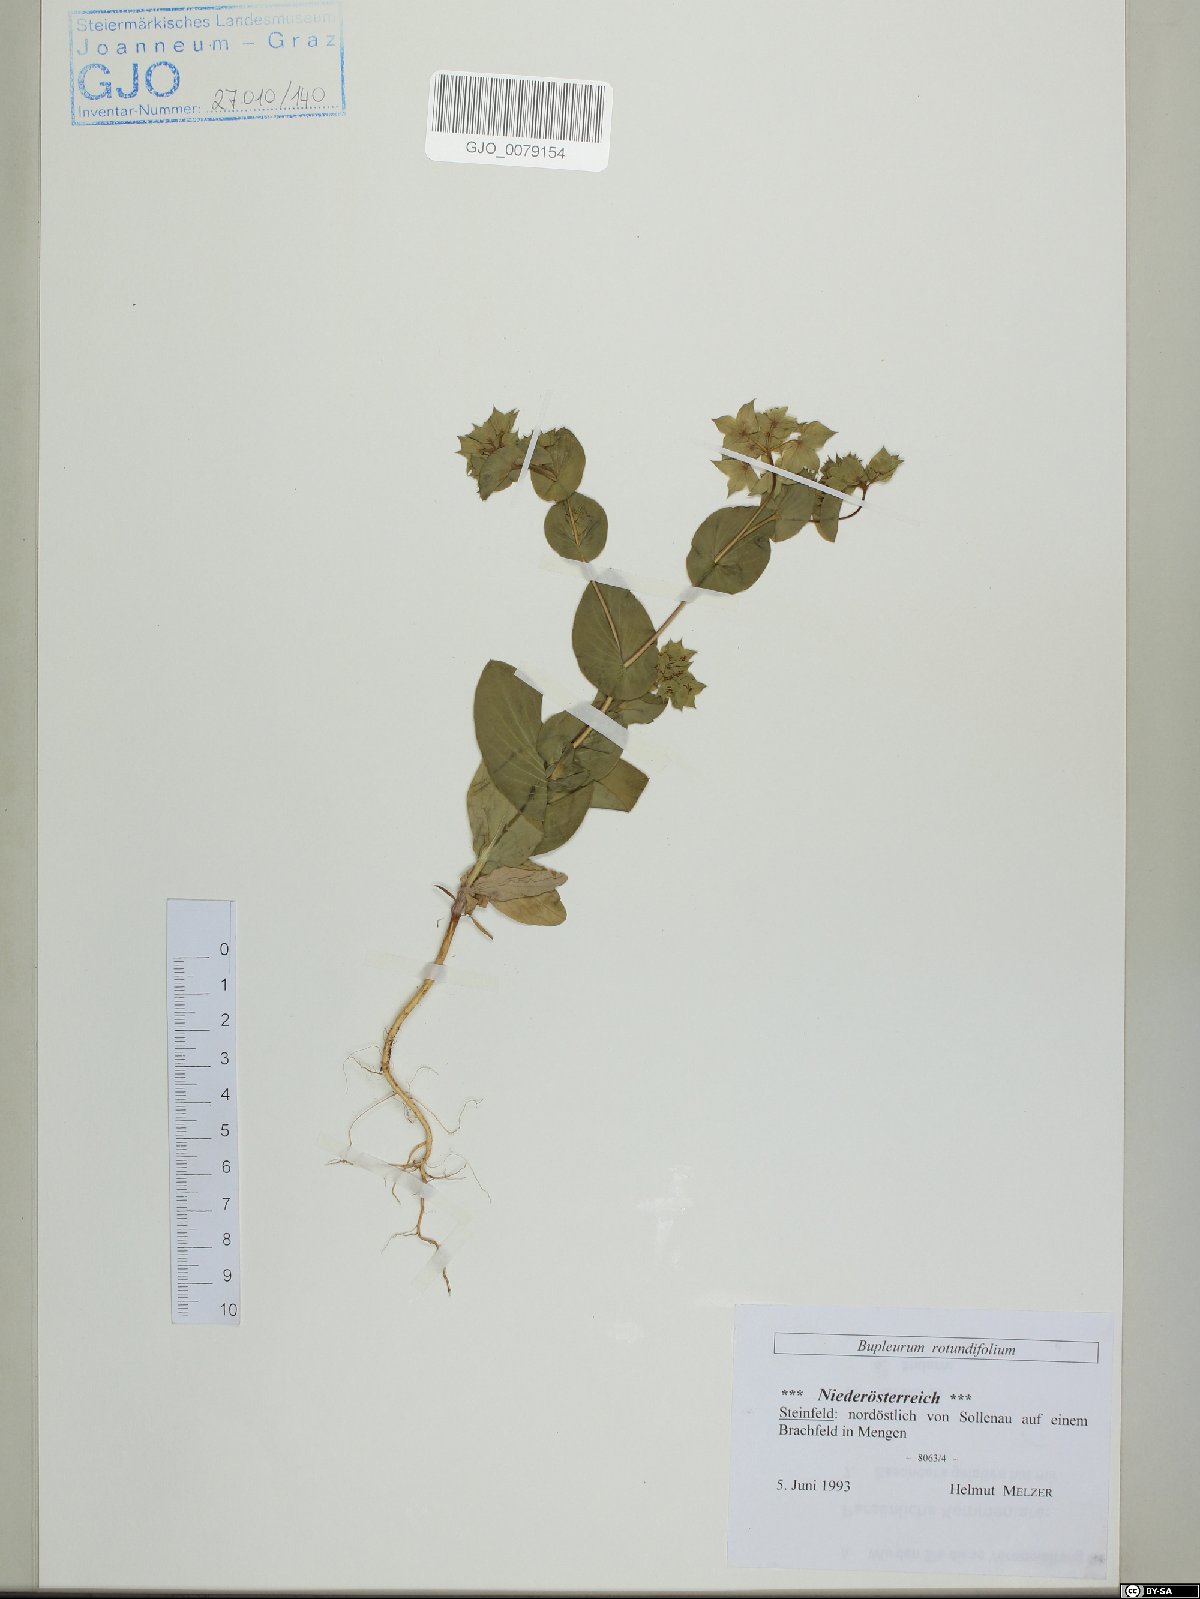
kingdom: Plantae
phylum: Tracheophyta
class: Magnoliopsida
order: Apiales
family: Apiaceae
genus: Bupleurum
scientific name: Bupleurum rotundifolium
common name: Thorow-wax
